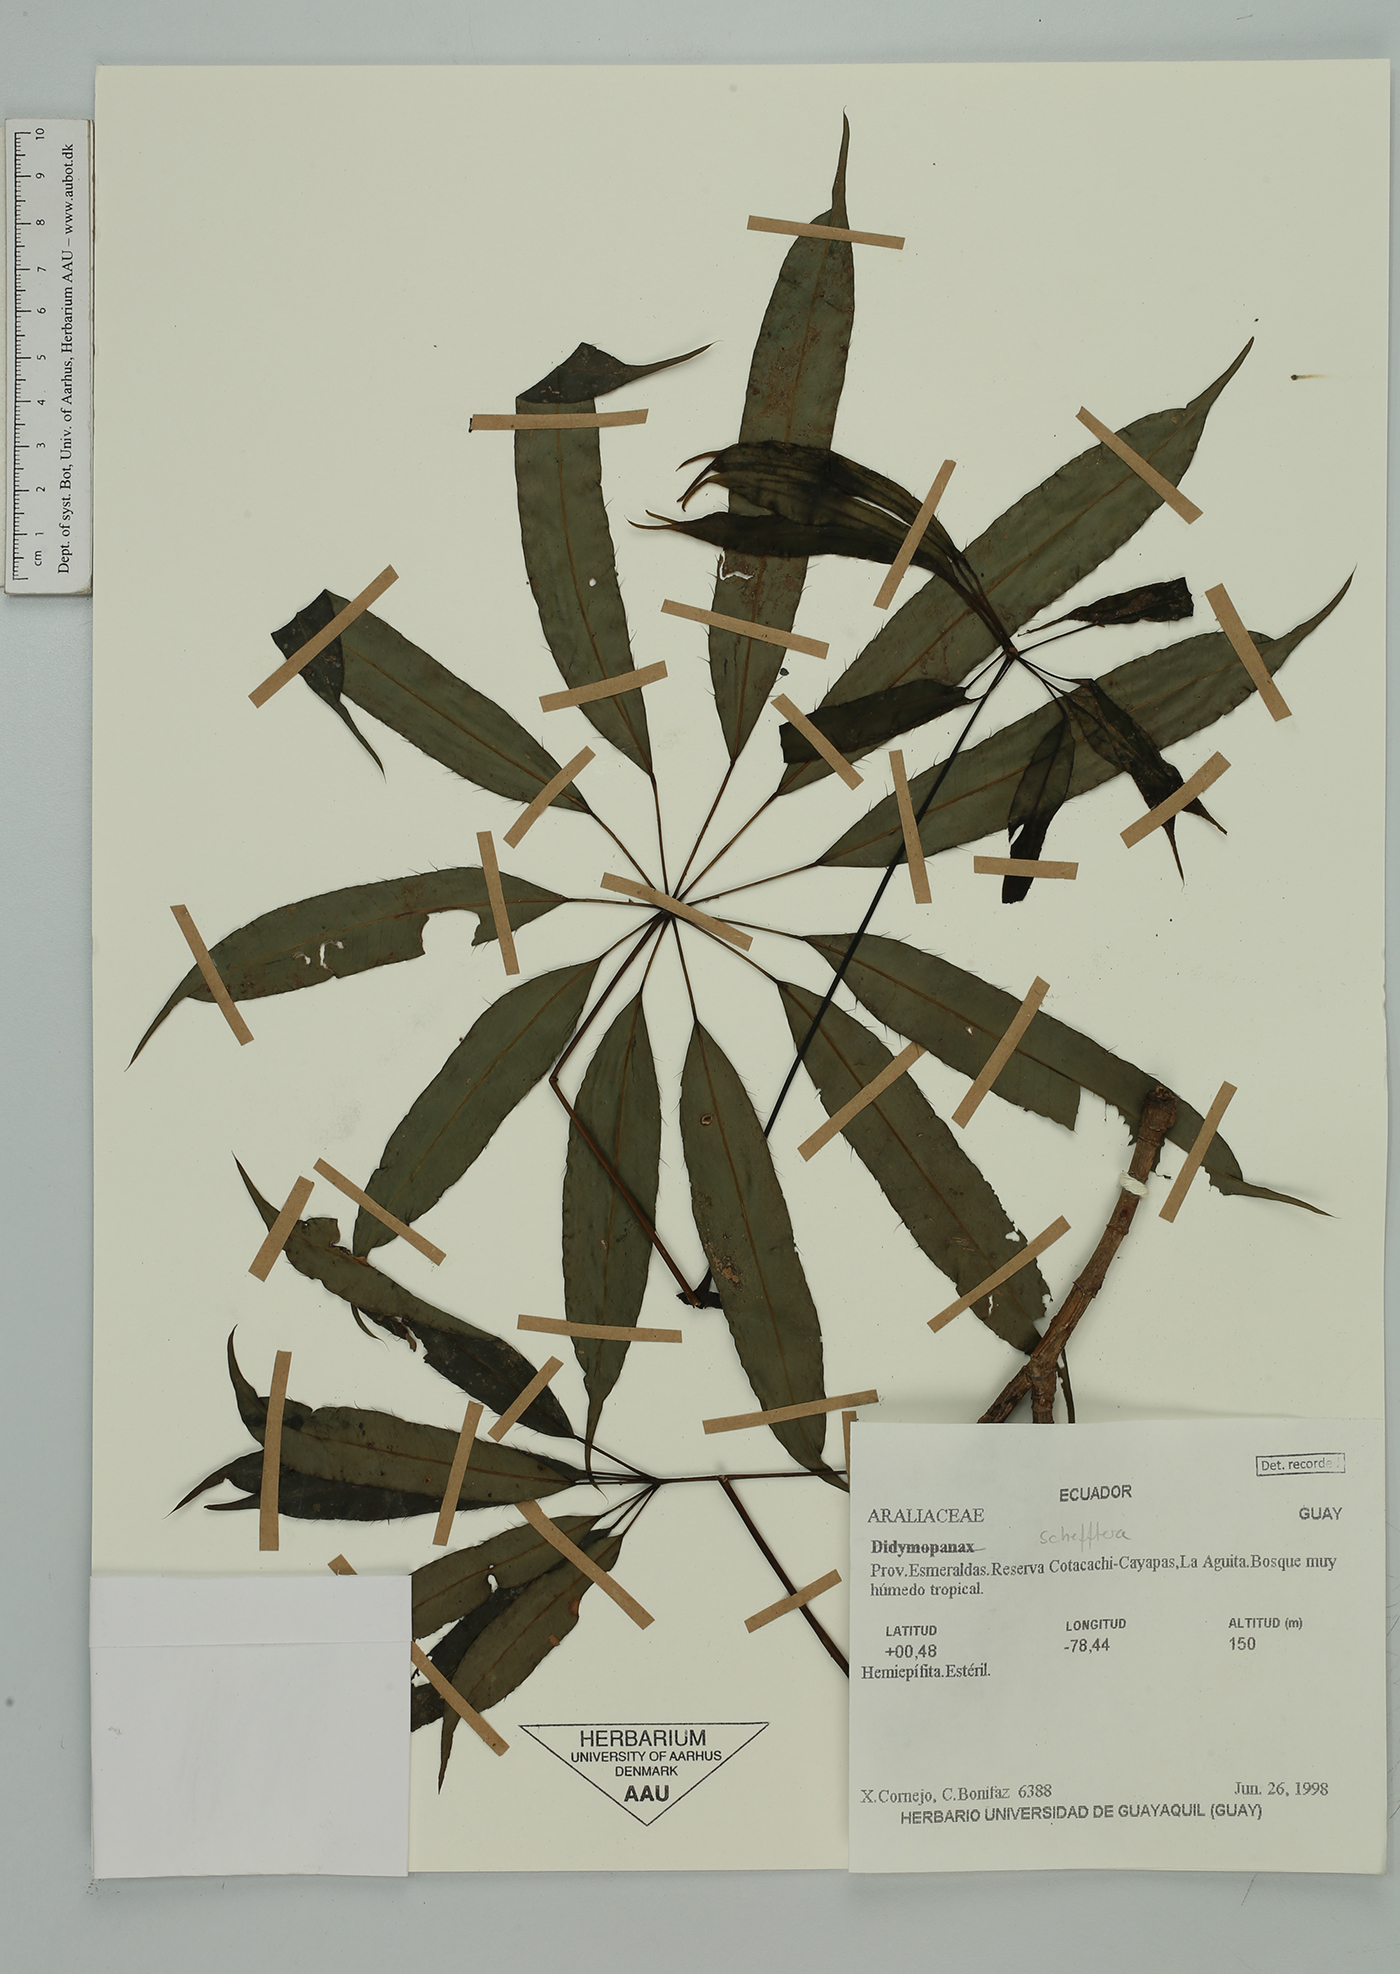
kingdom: Plantae
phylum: Tracheophyta
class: Magnoliopsida
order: Apiales
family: Araliaceae
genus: Sciodaphyllum
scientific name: Sciodaphyllum
